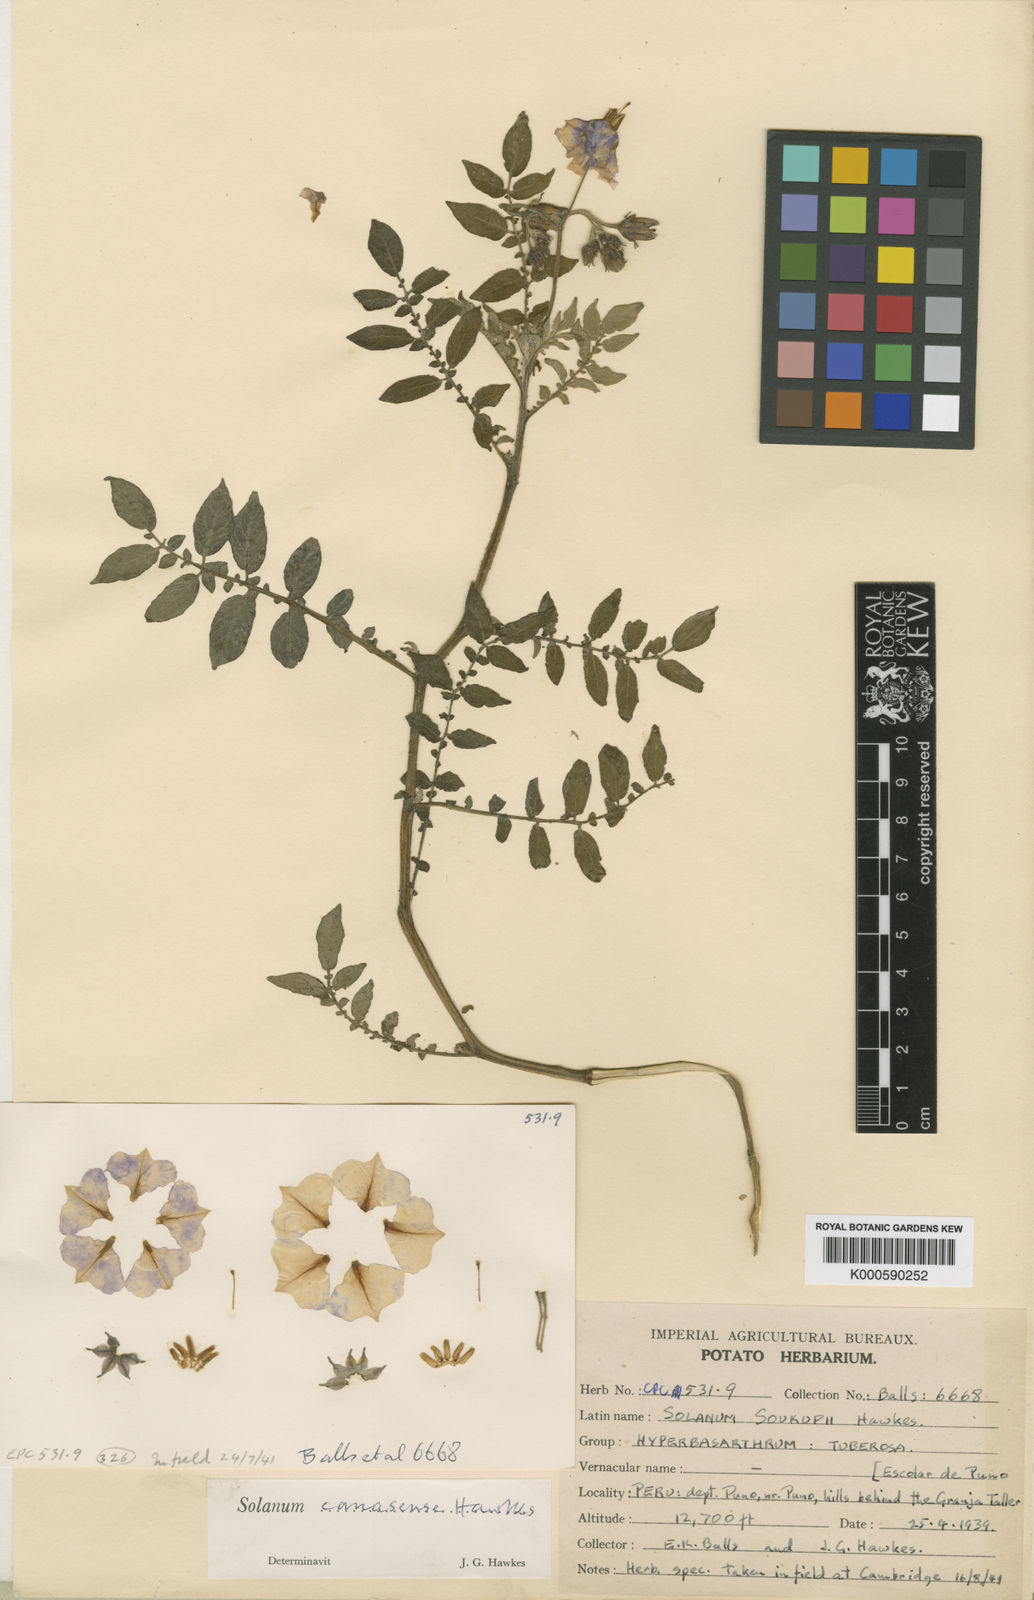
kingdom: Plantae
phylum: Tracheophyta
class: Magnoliopsida
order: Solanales
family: Solanaceae
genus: Solanum
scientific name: Solanum candolleanum
